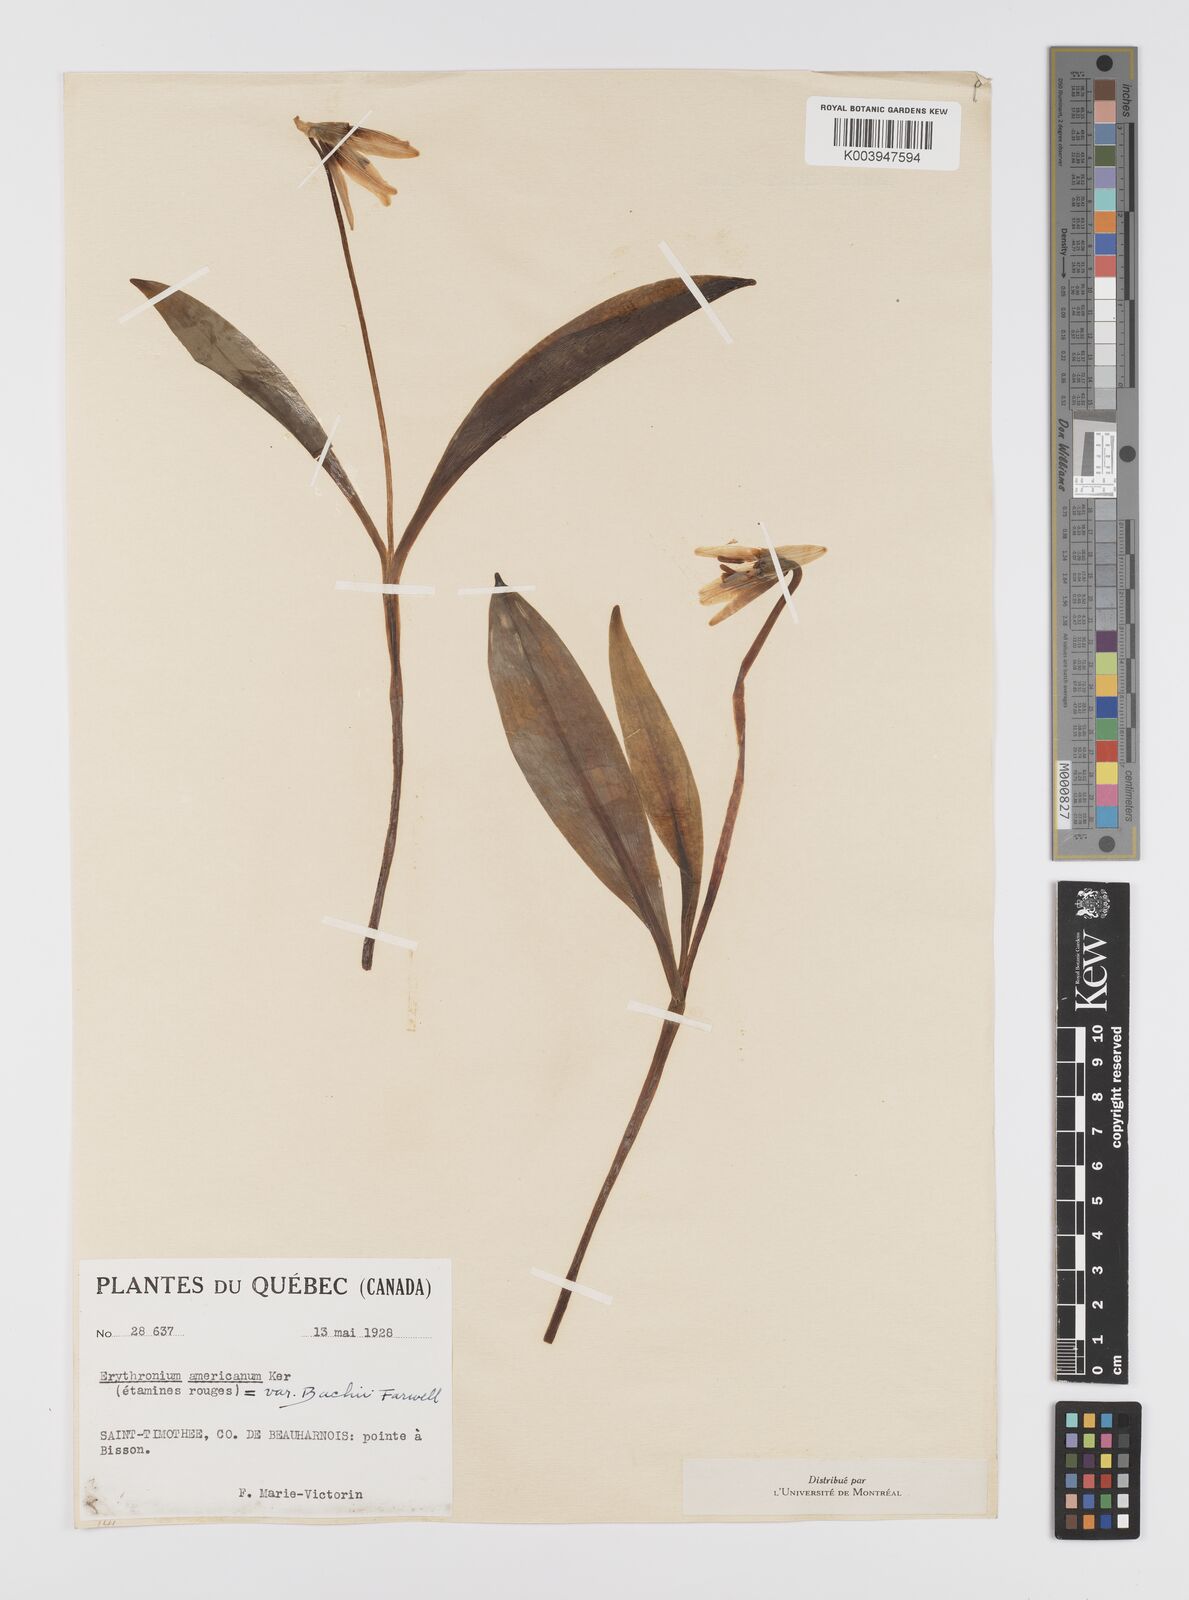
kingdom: Plantae
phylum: Tracheophyta
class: Liliopsida
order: Liliales
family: Liliaceae
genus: Erythronium
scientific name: Erythronium grandiflorum
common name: Avalanche-lily
